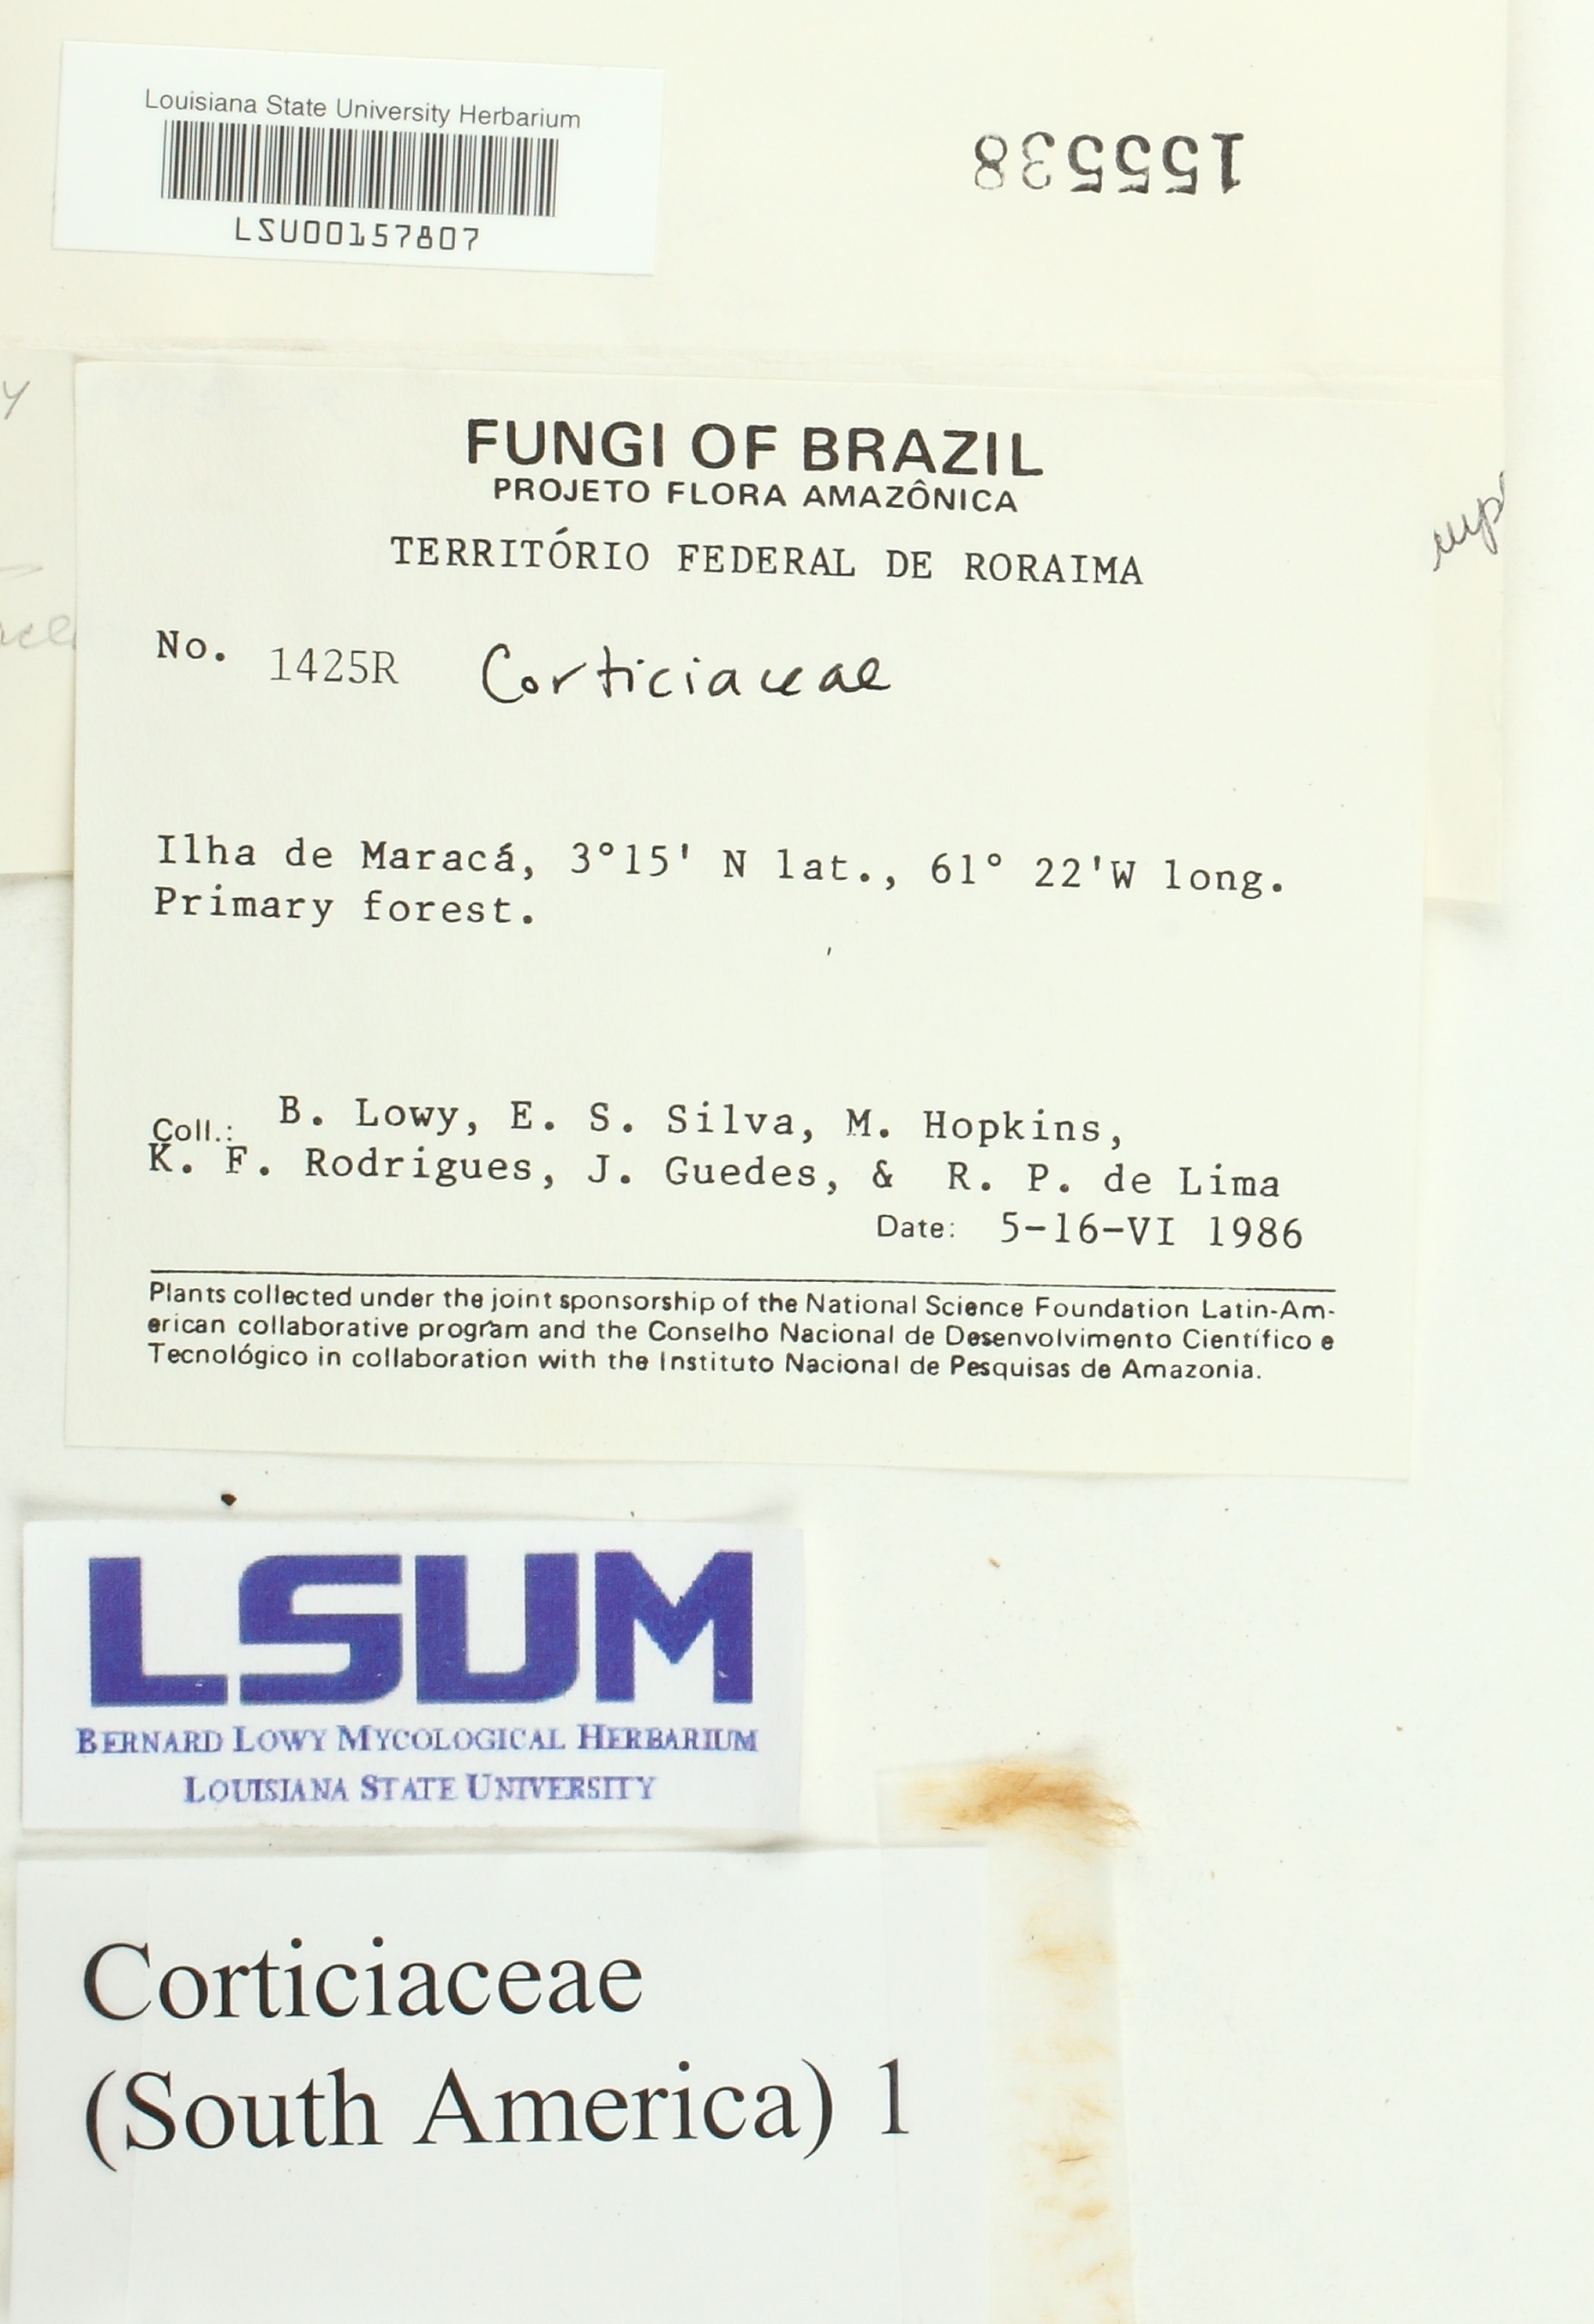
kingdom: Fungi
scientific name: Fungi
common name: Fungi
